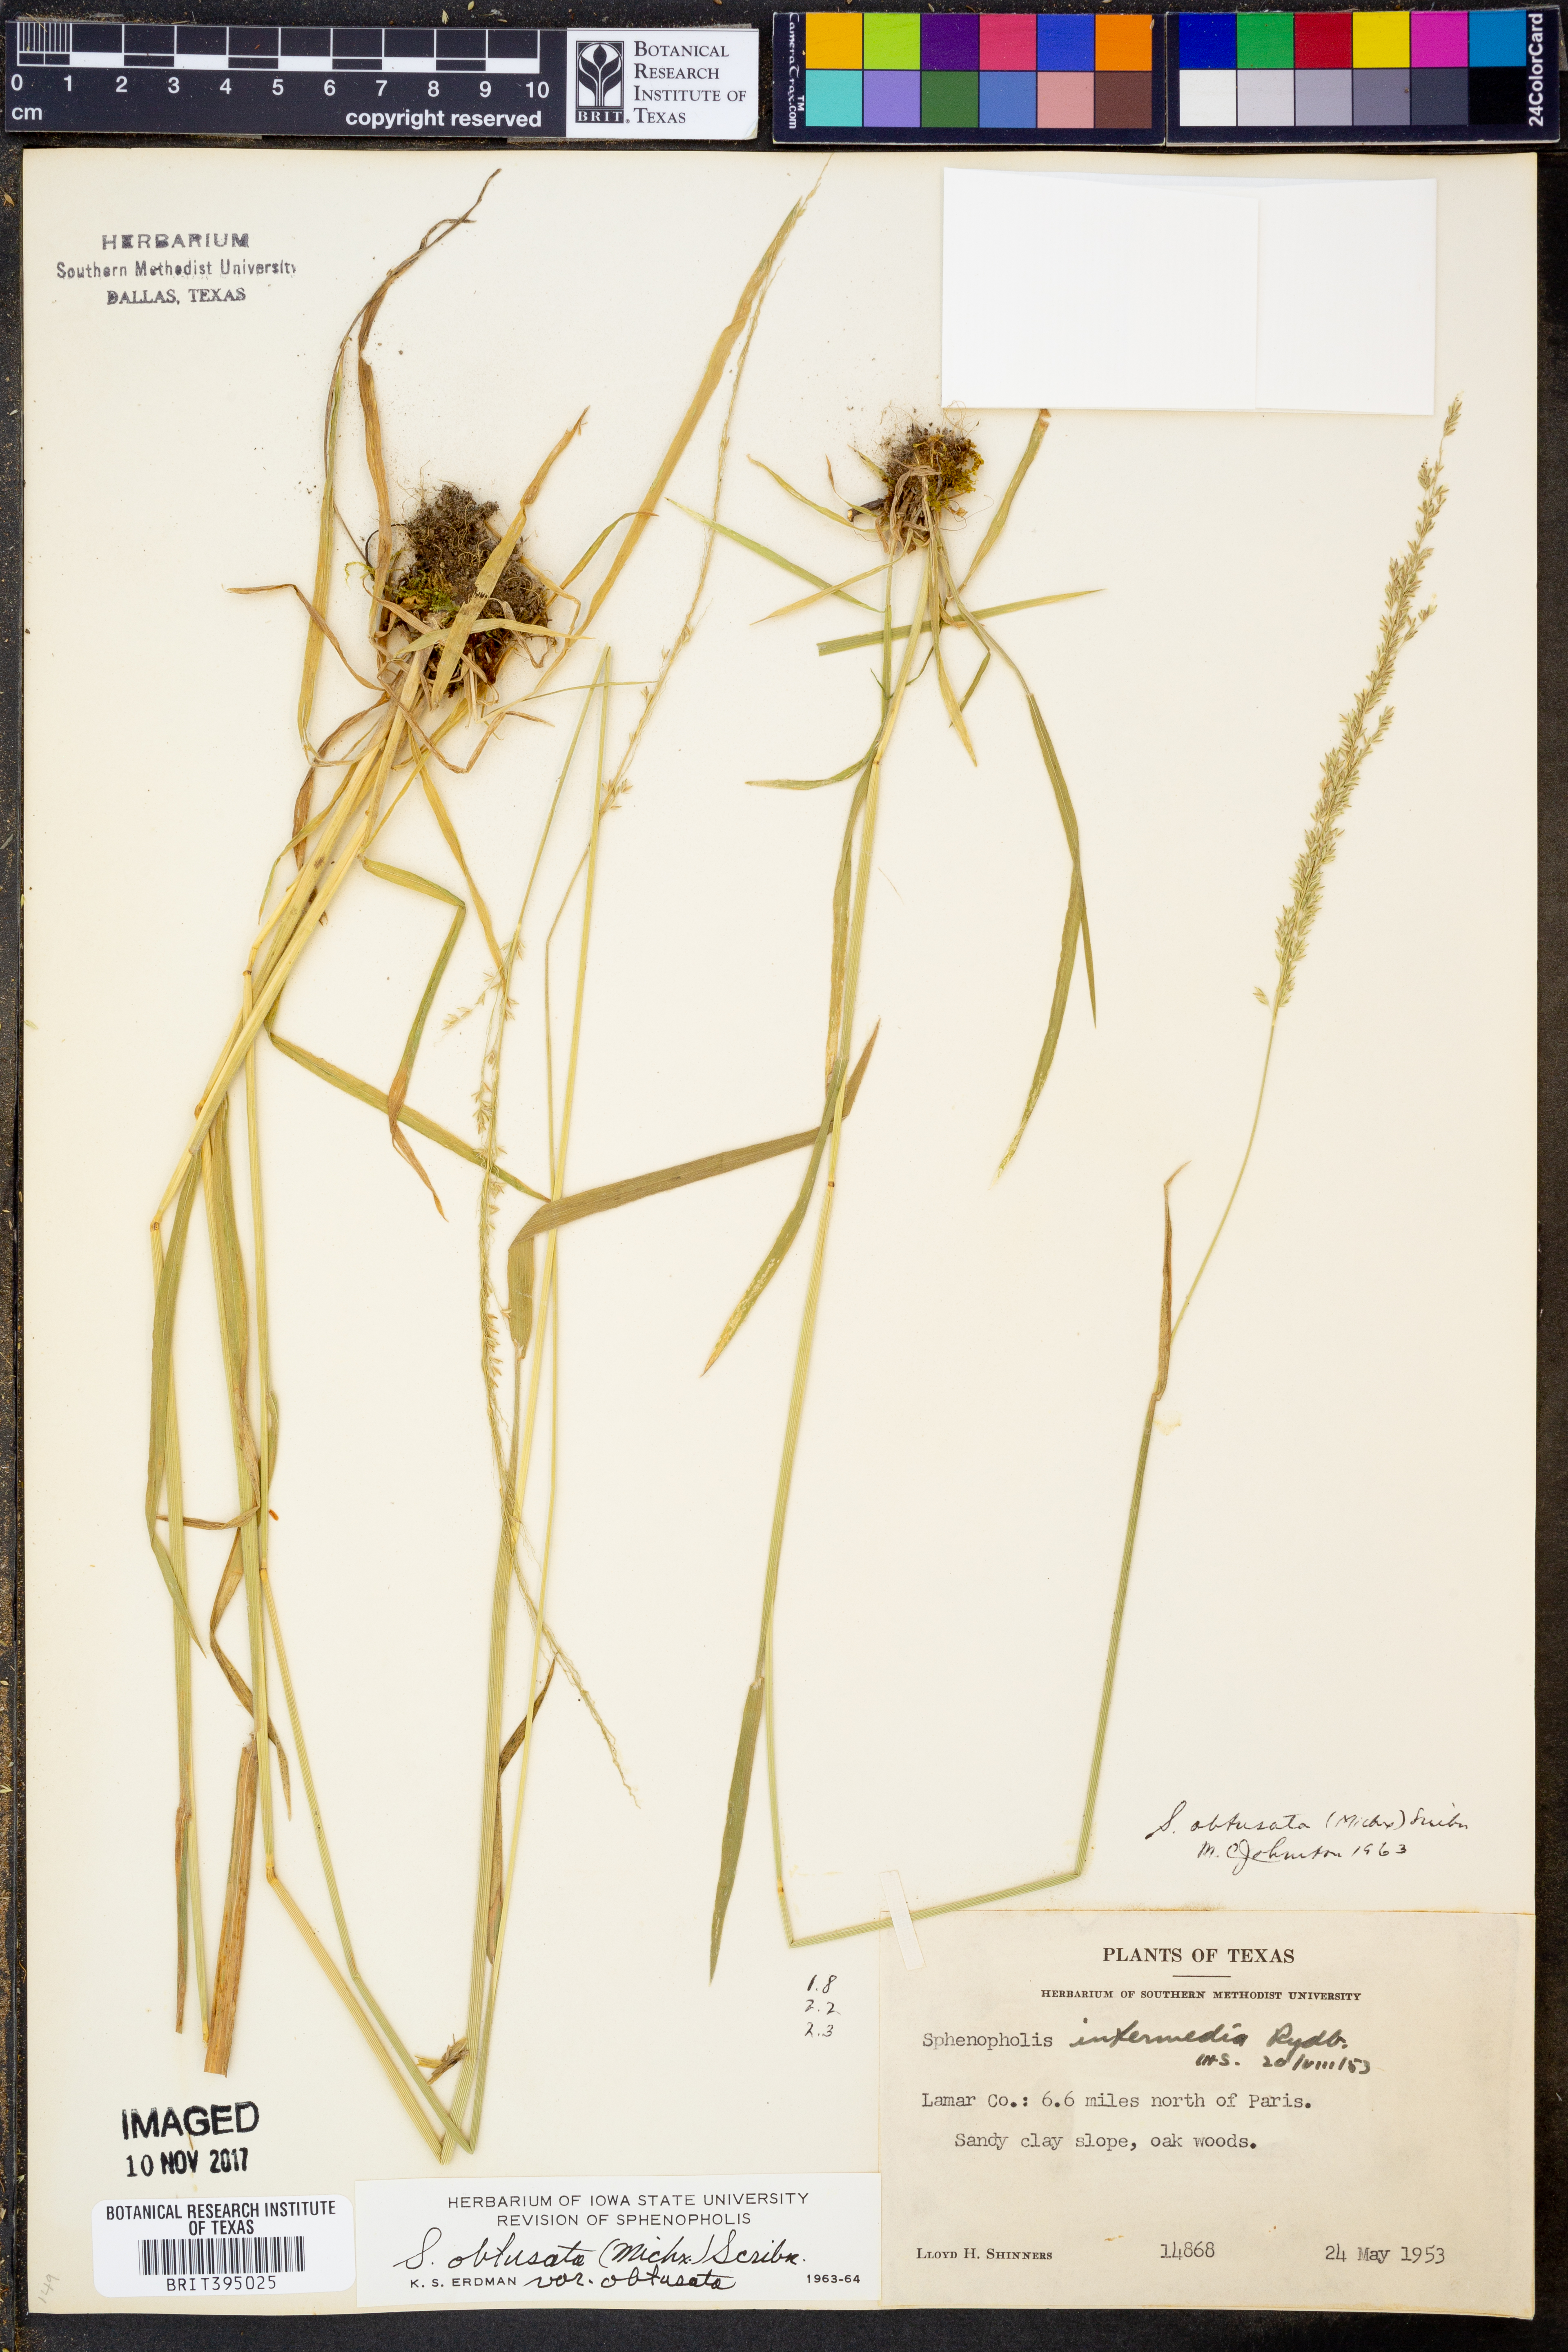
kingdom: Plantae
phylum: Tracheophyta
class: Liliopsida
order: Poales
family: Poaceae
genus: Sphenopholis
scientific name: Sphenopholis obtusata
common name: Prairie grass
